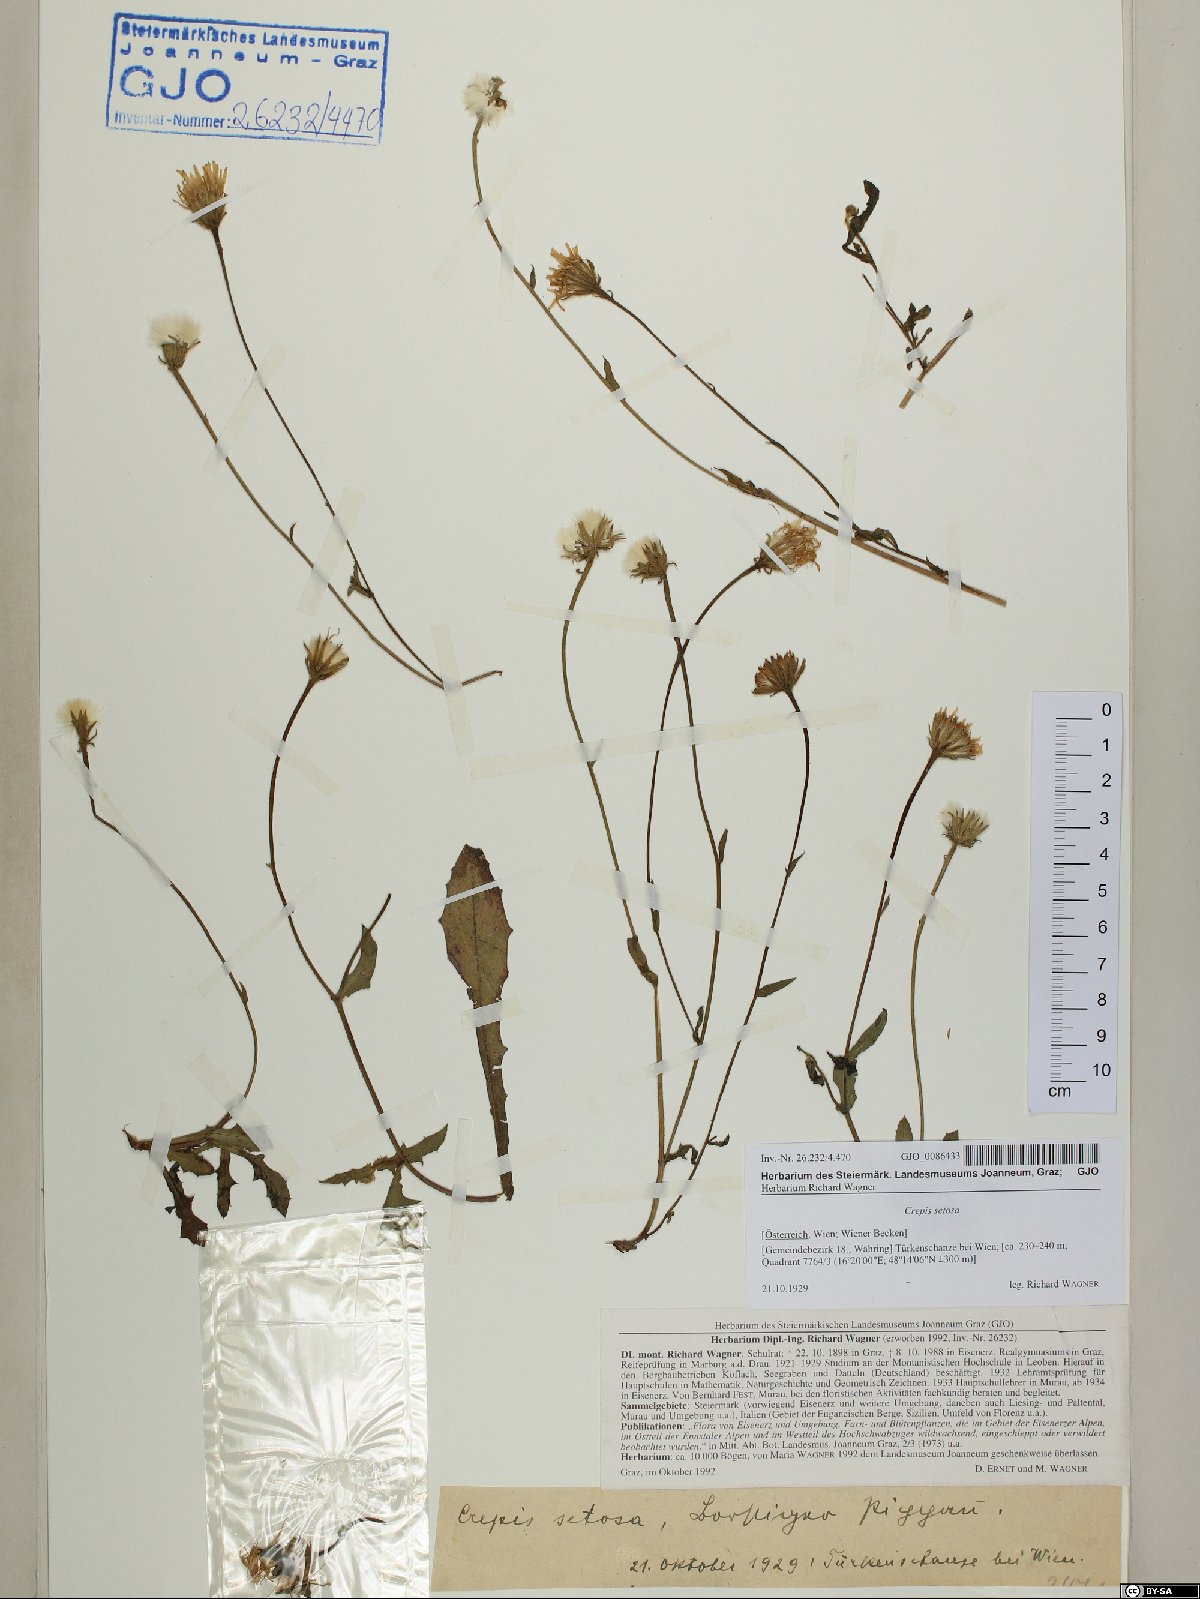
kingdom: Plantae
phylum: Tracheophyta
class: Magnoliopsida
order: Asterales
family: Asteraceae
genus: Crepis
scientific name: Crepis setosa
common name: Bristly hawk's-beard
